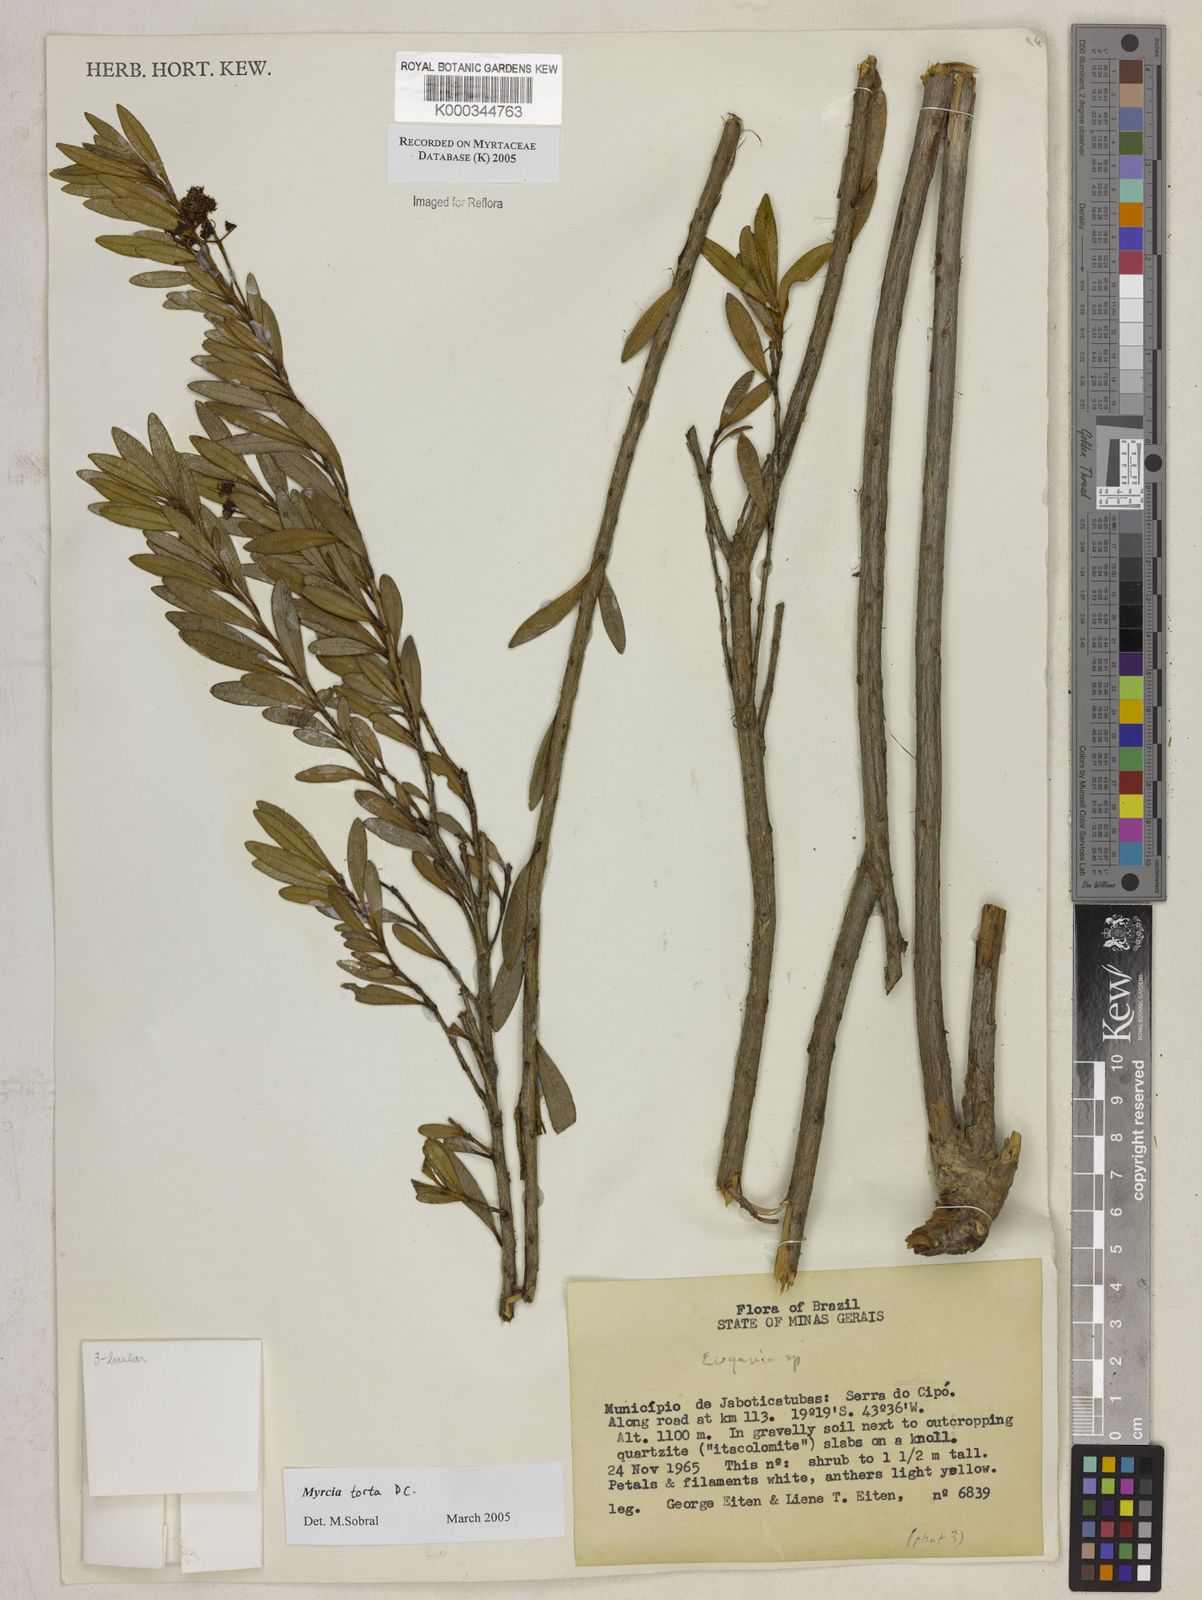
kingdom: Plantae
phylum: Tracheophyta
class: Magnoliopsida
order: Myrtales
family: Myrtaceae
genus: Myrcia
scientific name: Myrcia guianensis
